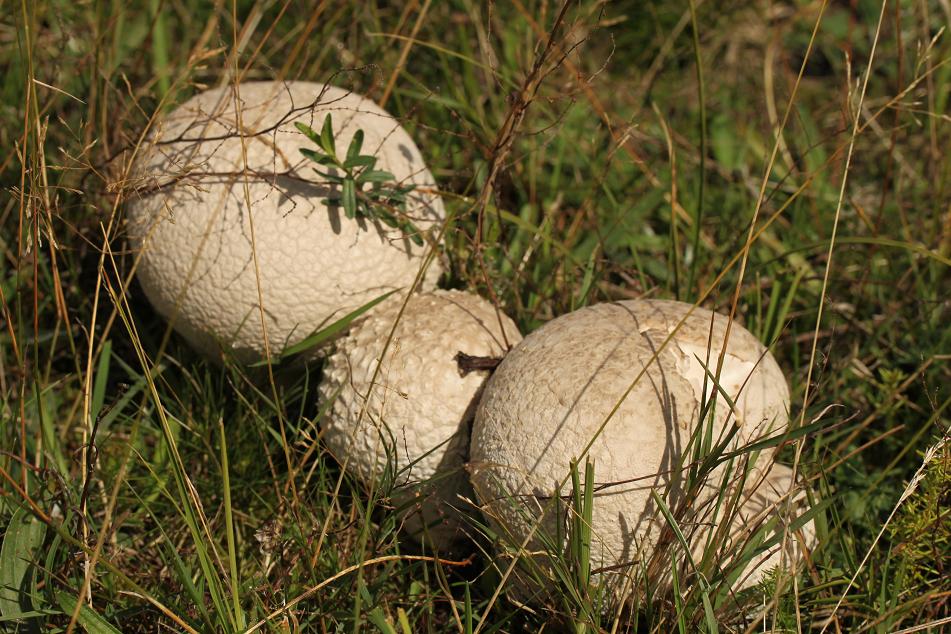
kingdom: Fungi
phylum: Basidiomycota
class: Agaricomycetes
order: Agaricales
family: Lycoperdaceae
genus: Calvatia
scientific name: Calvatia gigantea
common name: kæmpestøvbold
